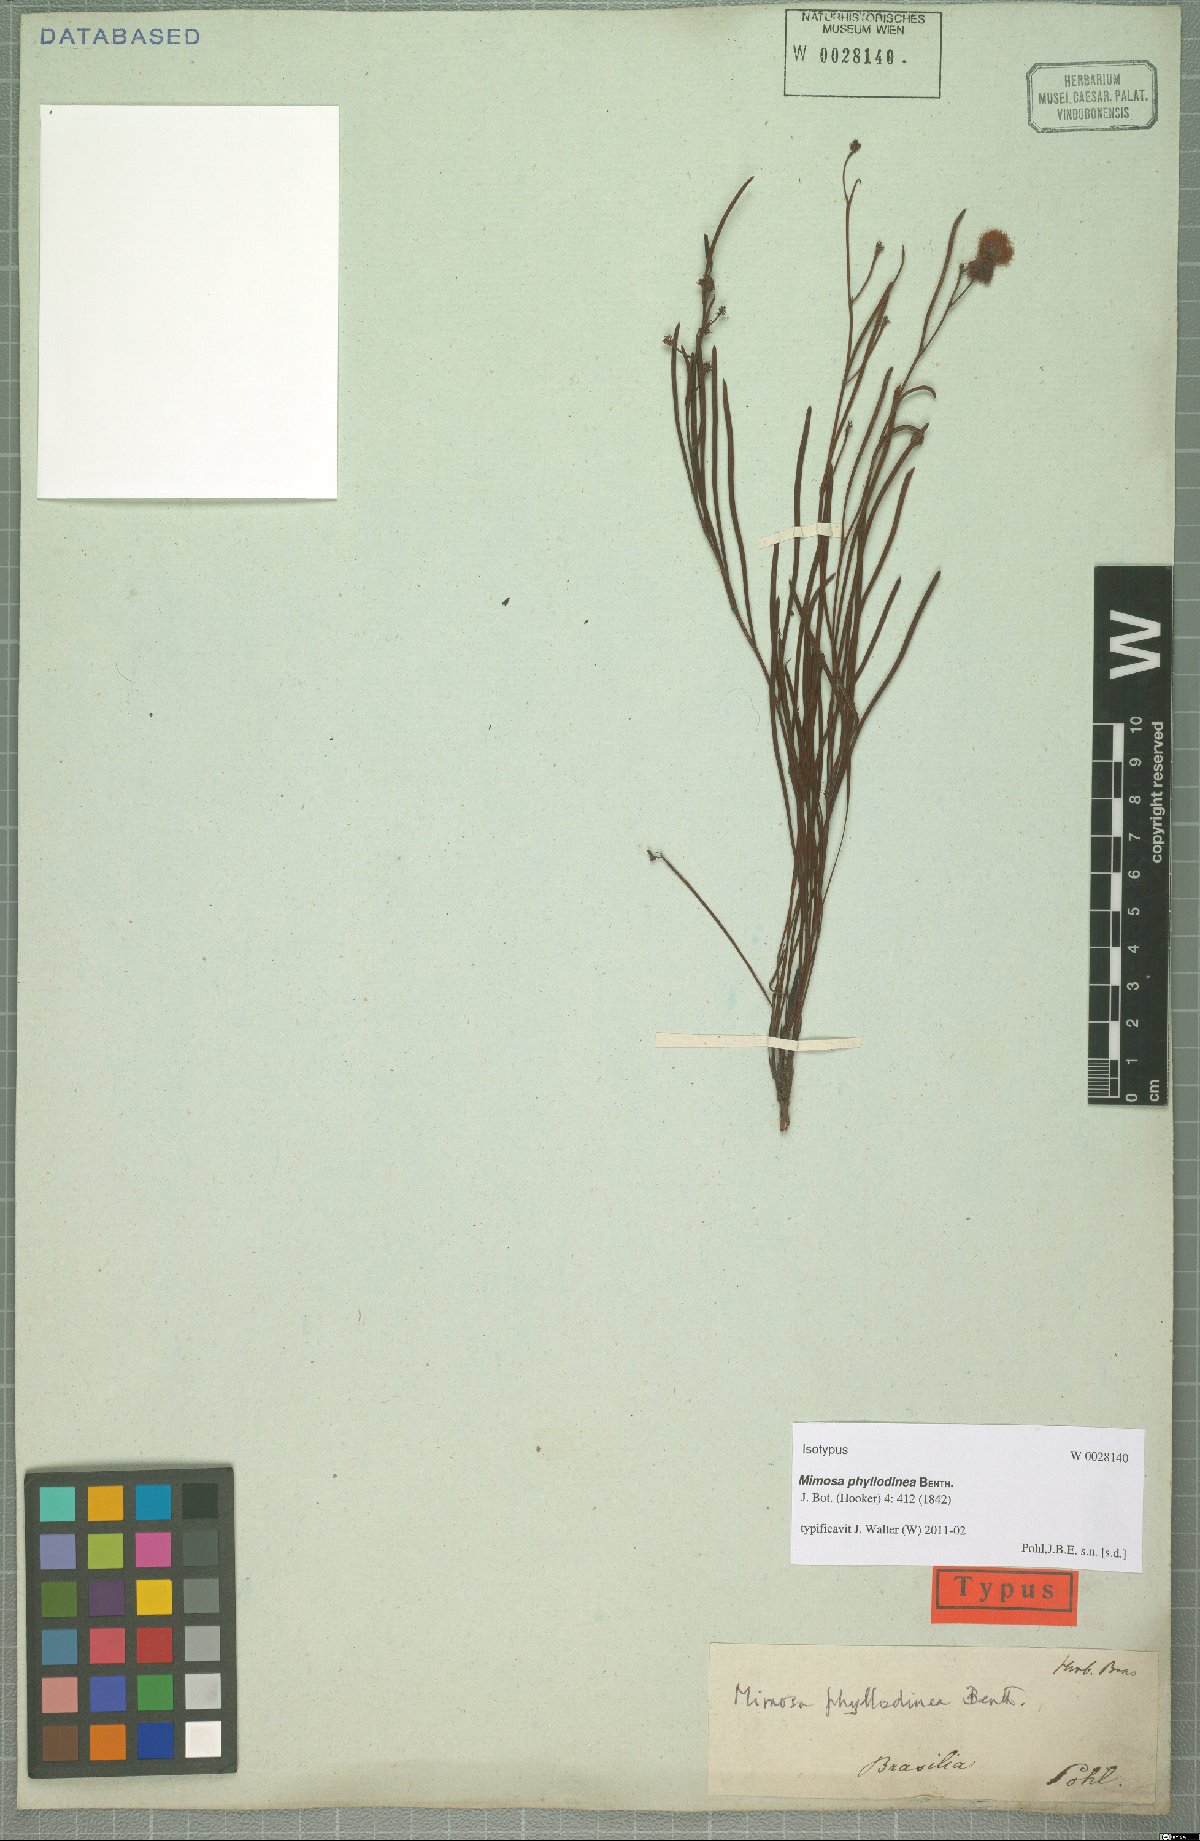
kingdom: Plantae
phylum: Tracheophyta
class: Magnoliopsida
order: Fabales
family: Fabaceae
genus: Mimosa
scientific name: Mimosa phyllodinea
